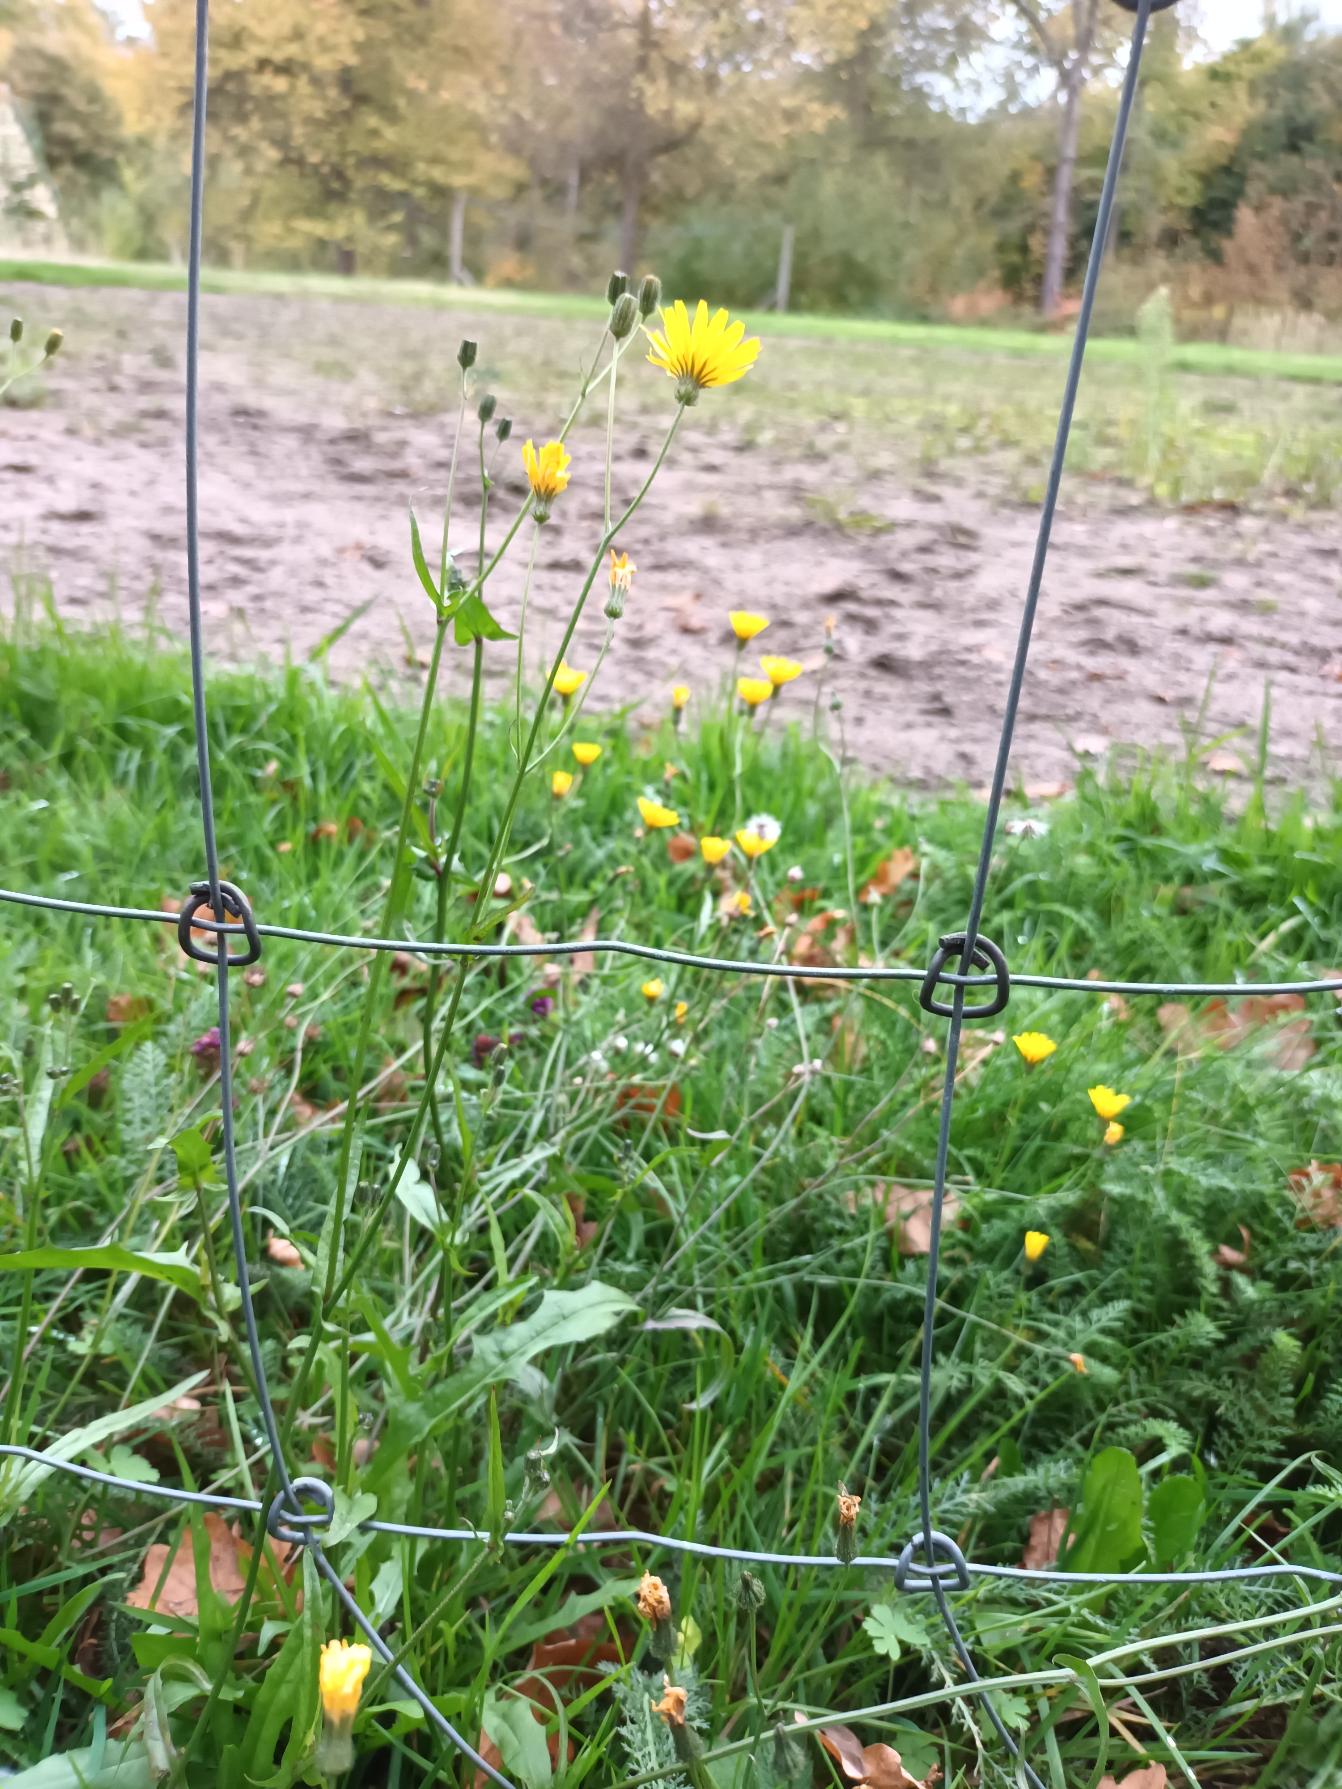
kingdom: Plantae
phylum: Tracheophyta
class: Magnoliopsida
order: Asterales
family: Asteraceae
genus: Crepis
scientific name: Crepis capillaris
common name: Grøn høgeskæg
